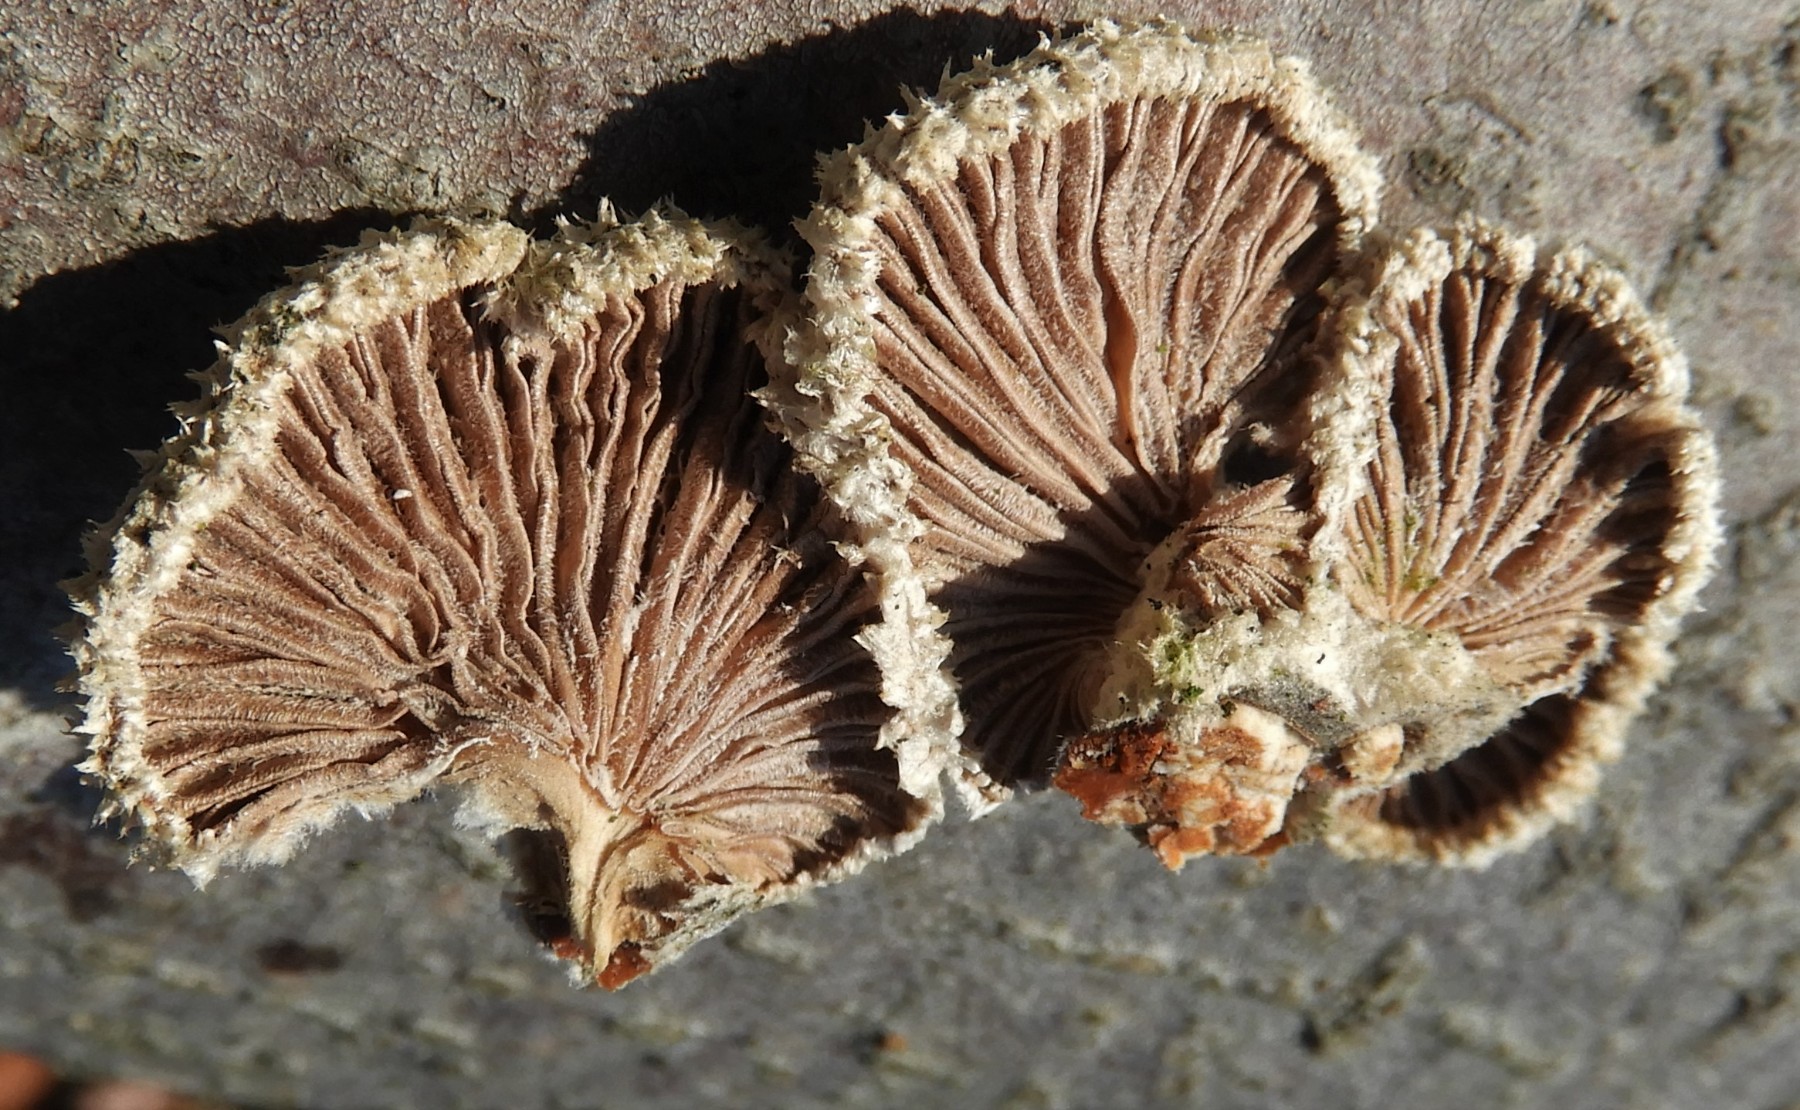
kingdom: Fungi
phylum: Basidiomycota
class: Agaricomycetes
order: Agaricales
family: Schizophyllaceae
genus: Schizophyllum
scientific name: Schizophyllum commune
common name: kløvblad
